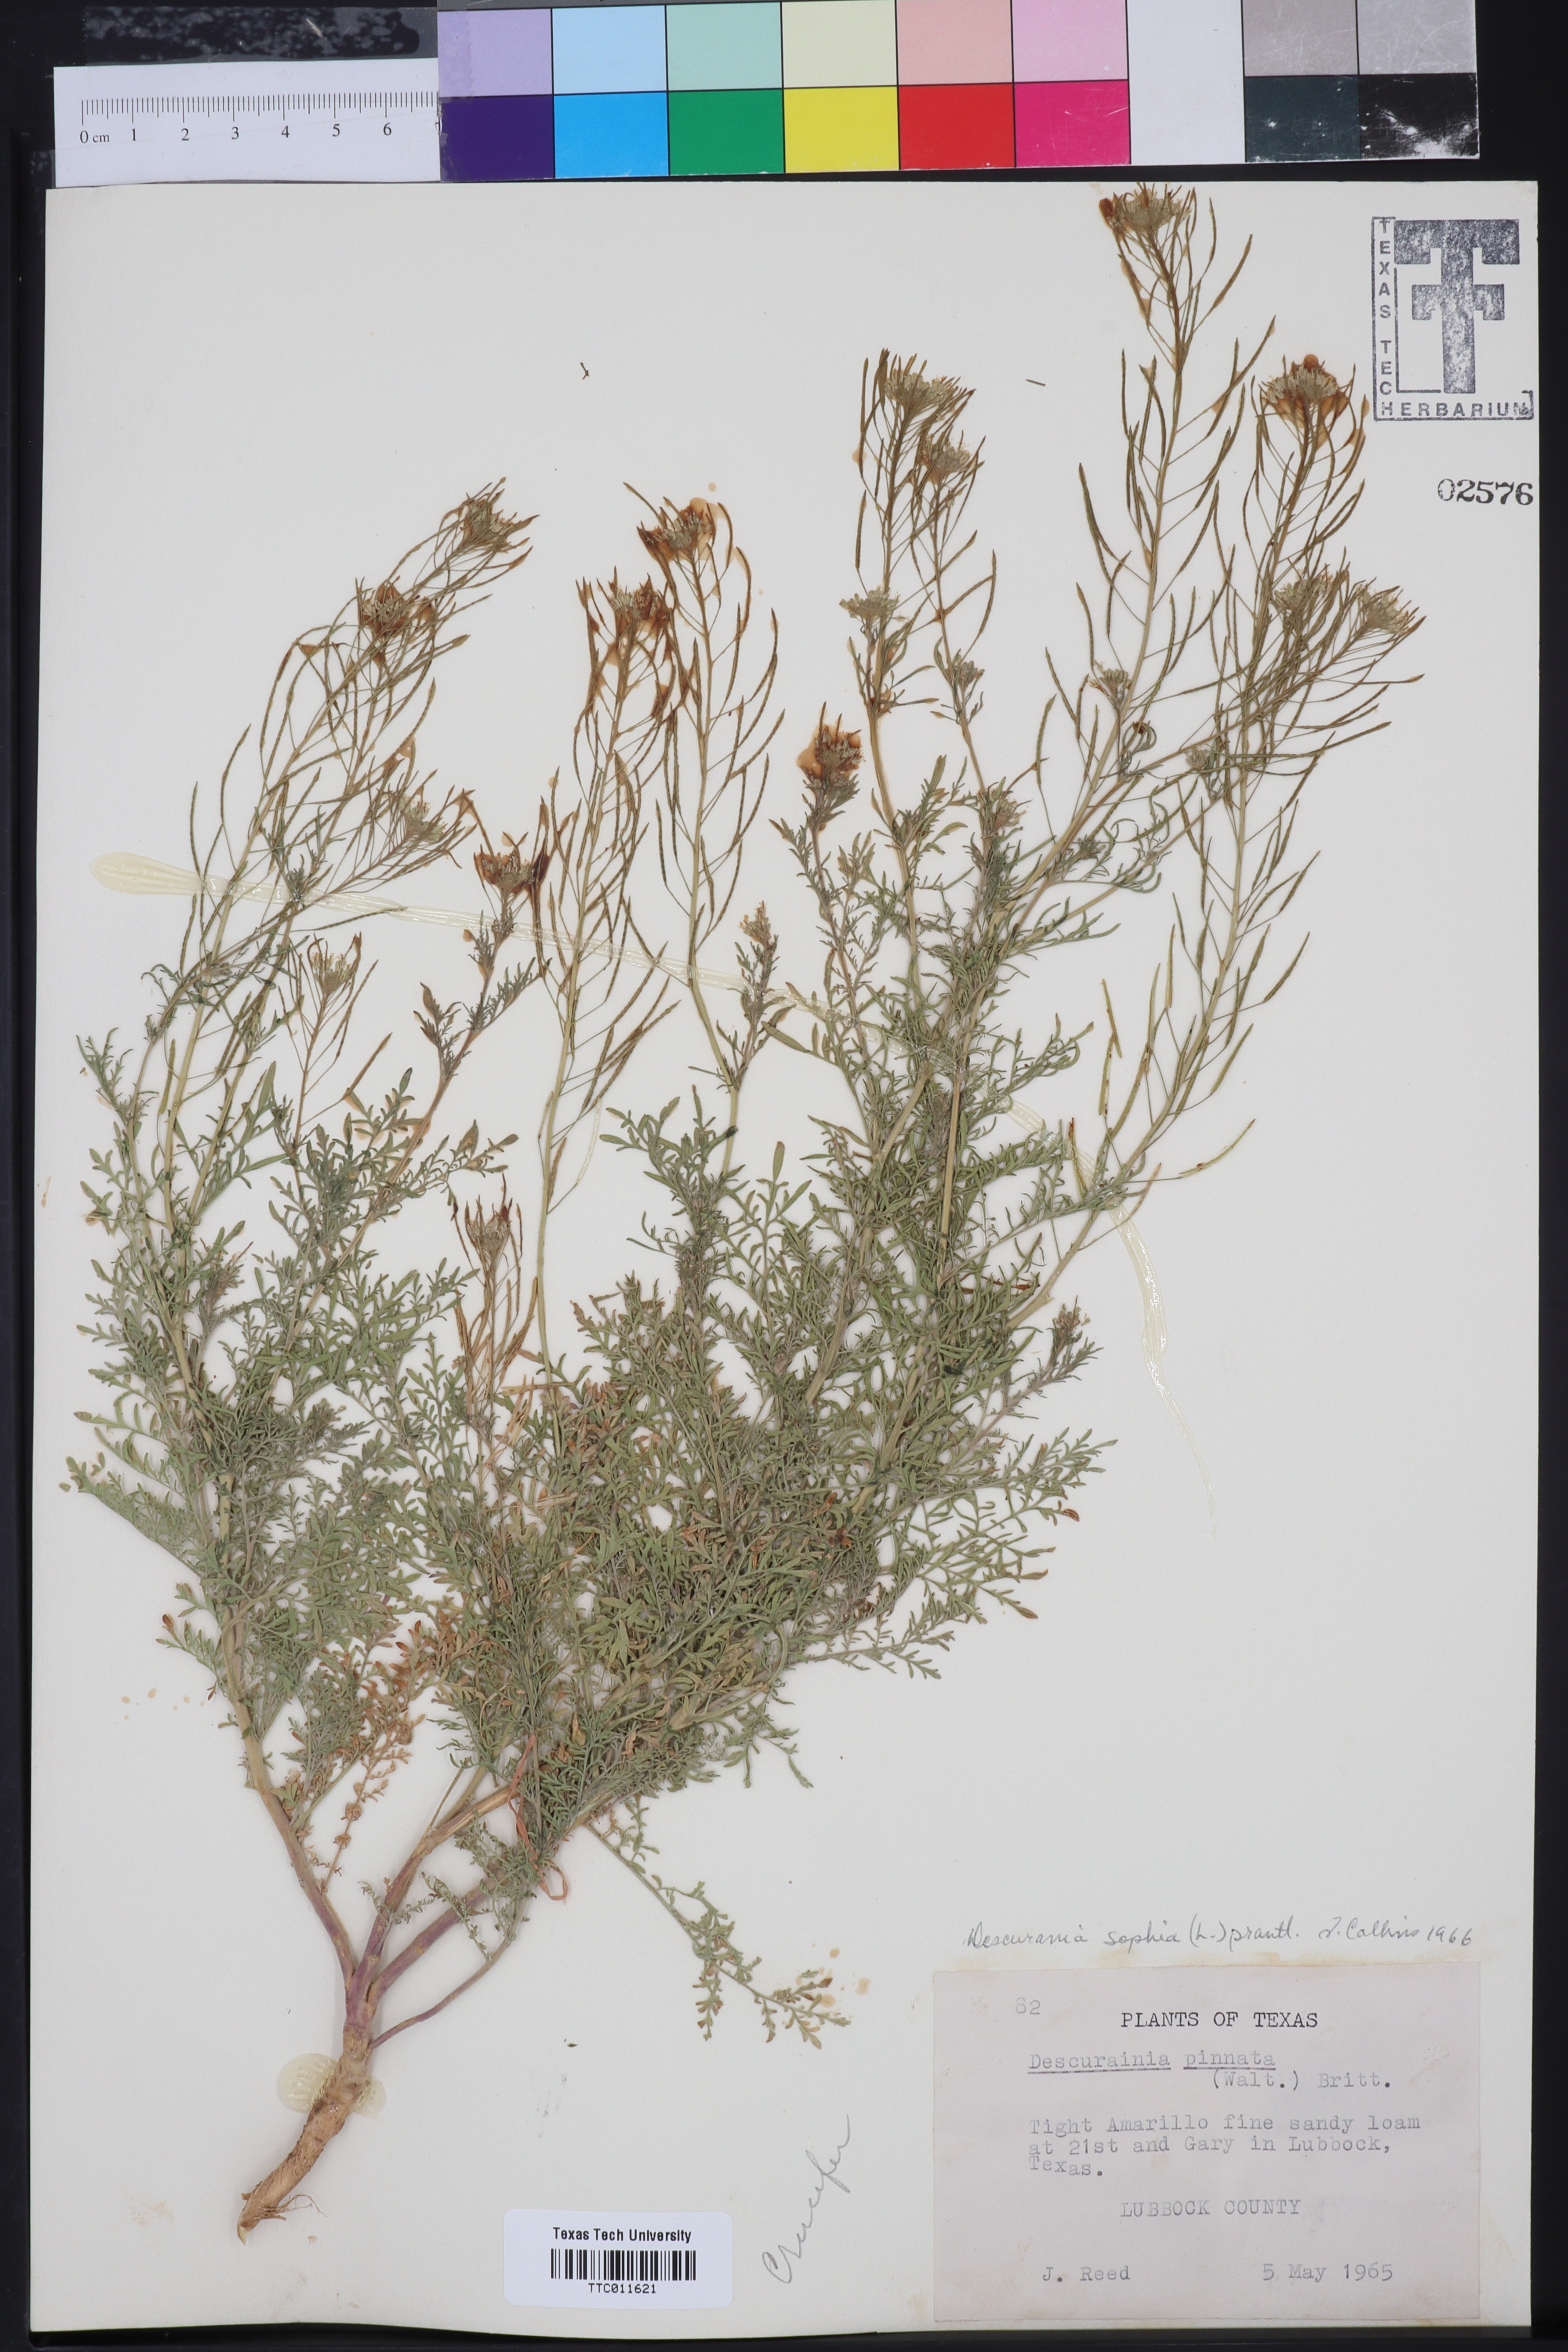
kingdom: Plantae
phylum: Tracheophyta
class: Magnoliopsida
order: Brassicales
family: Brassicaceae
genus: Descurainia
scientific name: Descurainia sophia
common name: Flixweed
